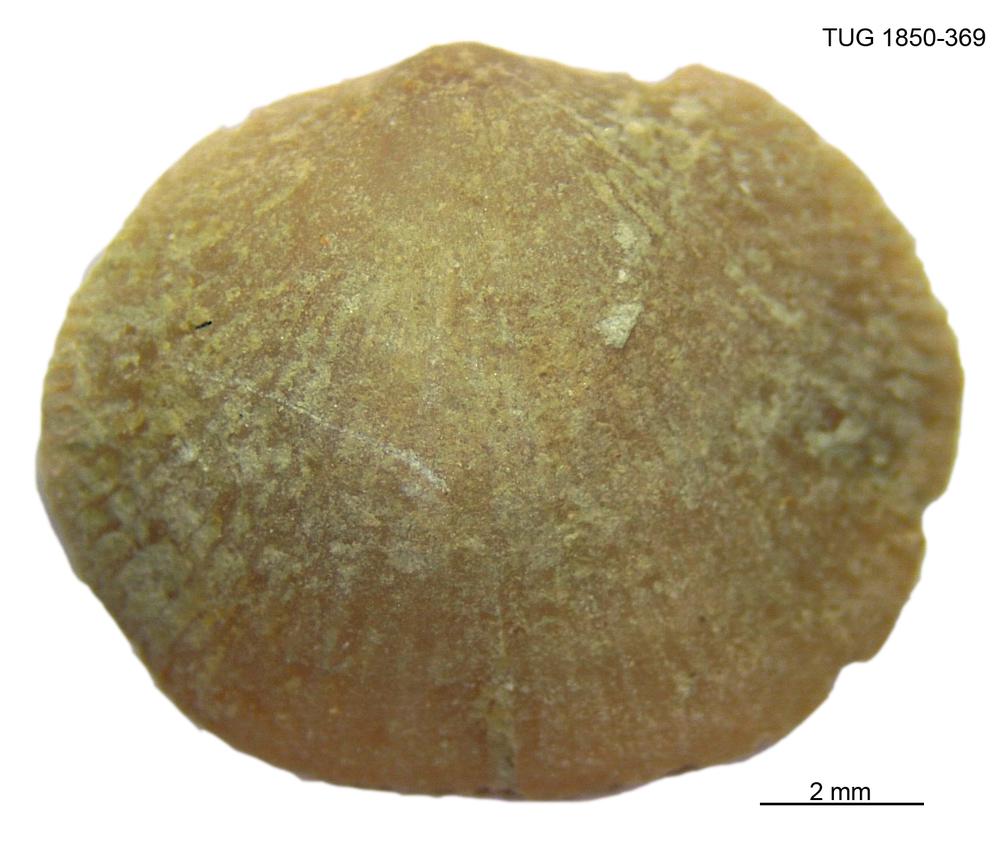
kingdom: Animalia
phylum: Brachiopoda
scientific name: Brachiopoda
